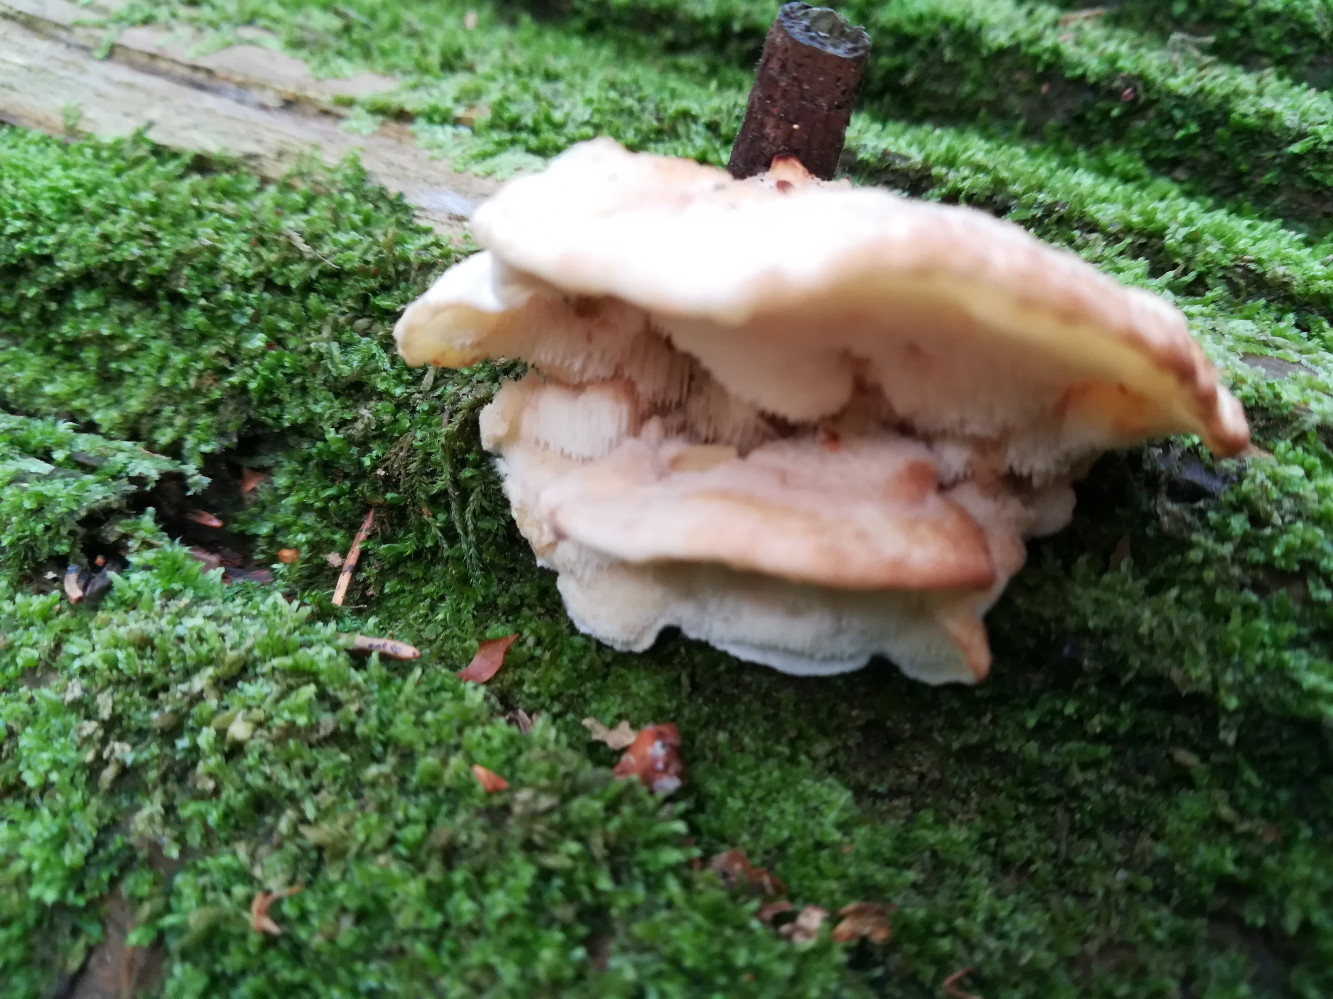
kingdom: Fungi
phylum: Basidiomycota
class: Agaricomycetes
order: Polyporales
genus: Fuscopostia
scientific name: Fuscopostia fragilis
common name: brunende kødporesvamp
